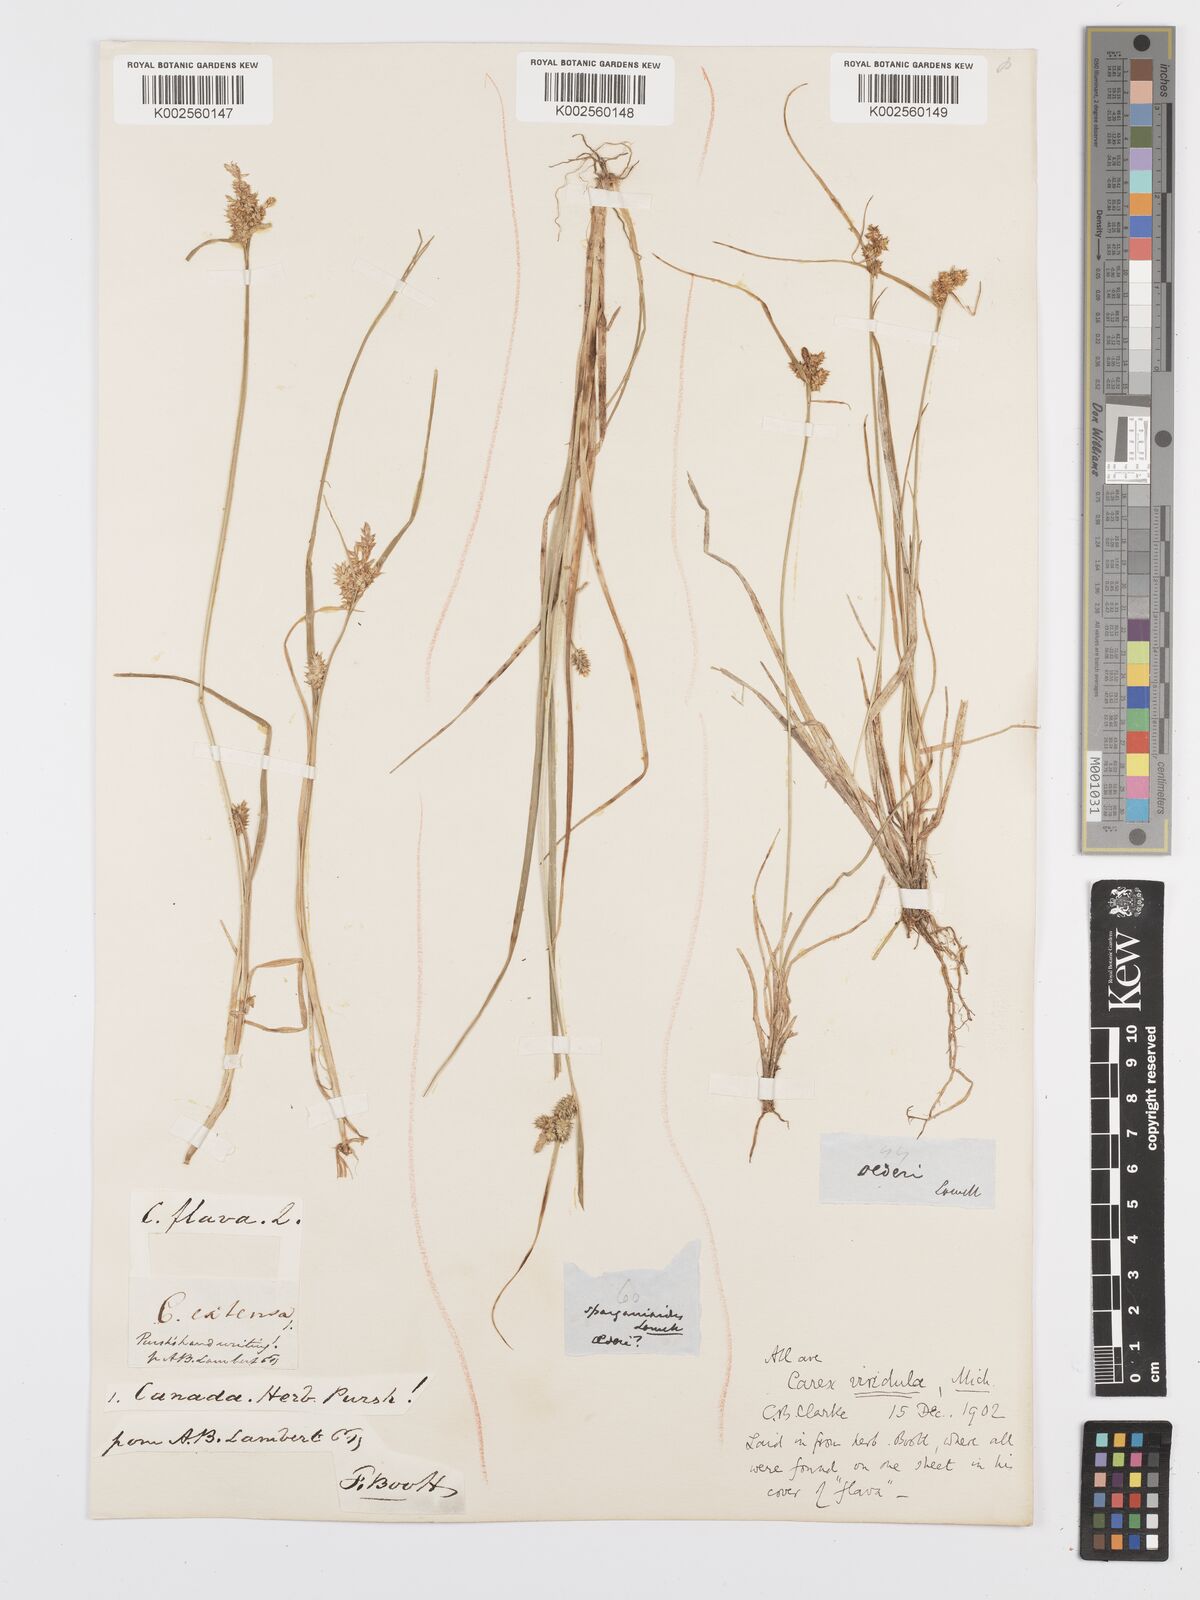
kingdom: Plantae
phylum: Tracheophyta
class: Liliopsida
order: Poales
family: Cyperaceae
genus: Carex
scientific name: Carex oederi
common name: Common & small-fruited yellow-sedge
